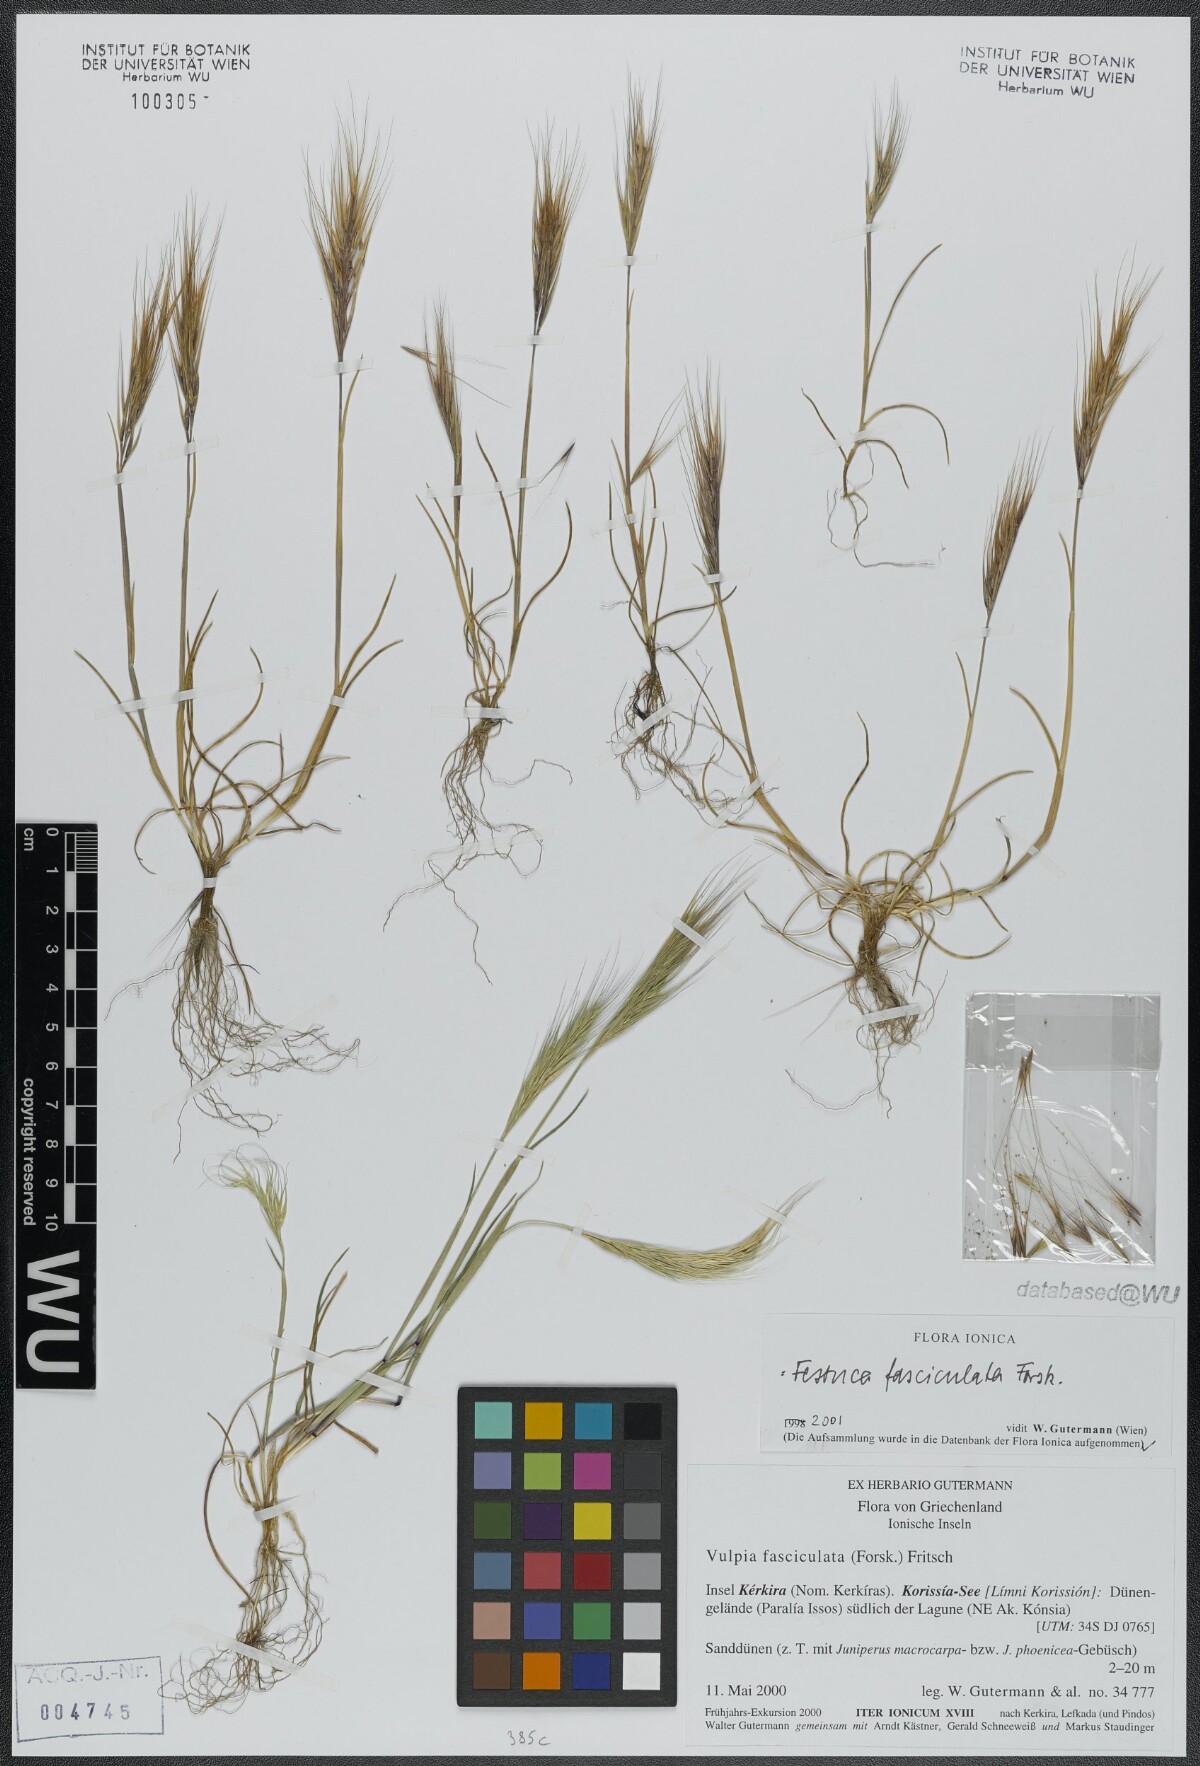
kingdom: Plantae
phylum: Tracheophyta
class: Liliopsida
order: Poales
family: Poaceae
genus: Festuca
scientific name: Festuca fasciculata
